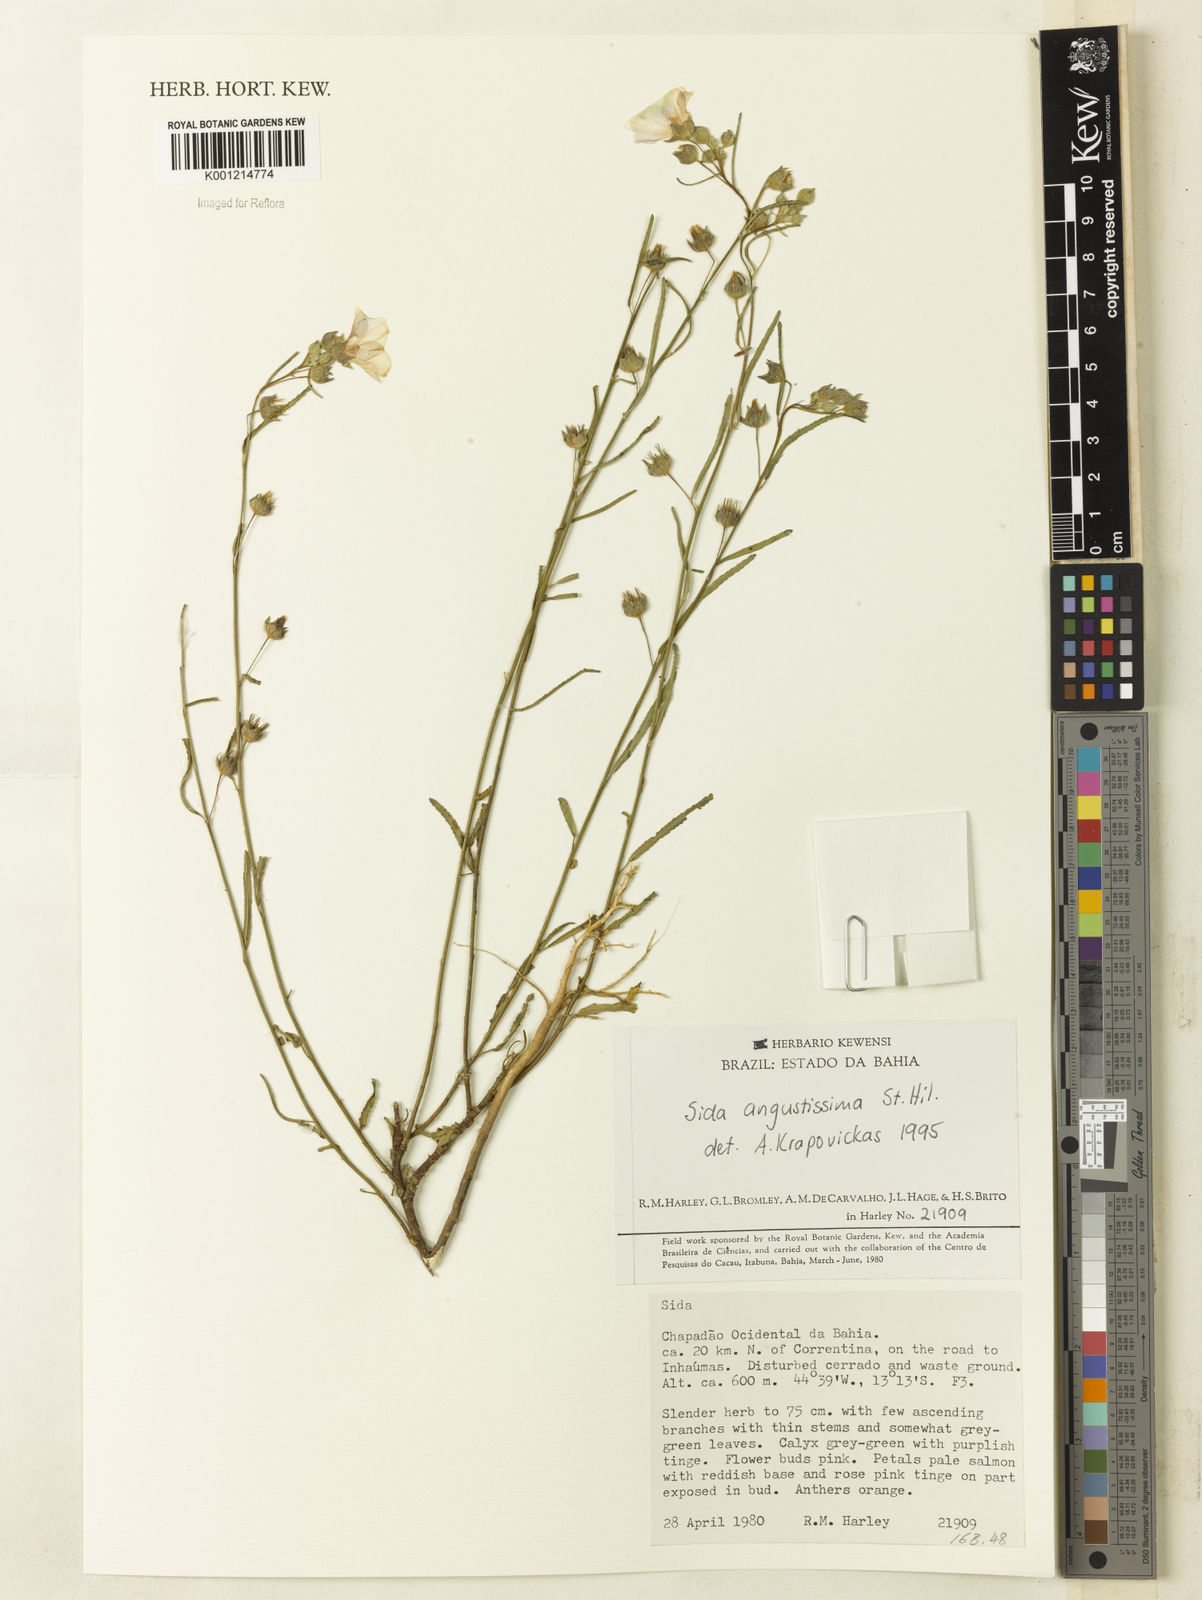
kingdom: Plantae
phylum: Tracheophyta
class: Magnoliopsida
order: Malvales
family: Malvaceae
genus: Sida
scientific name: Sida angustissima
